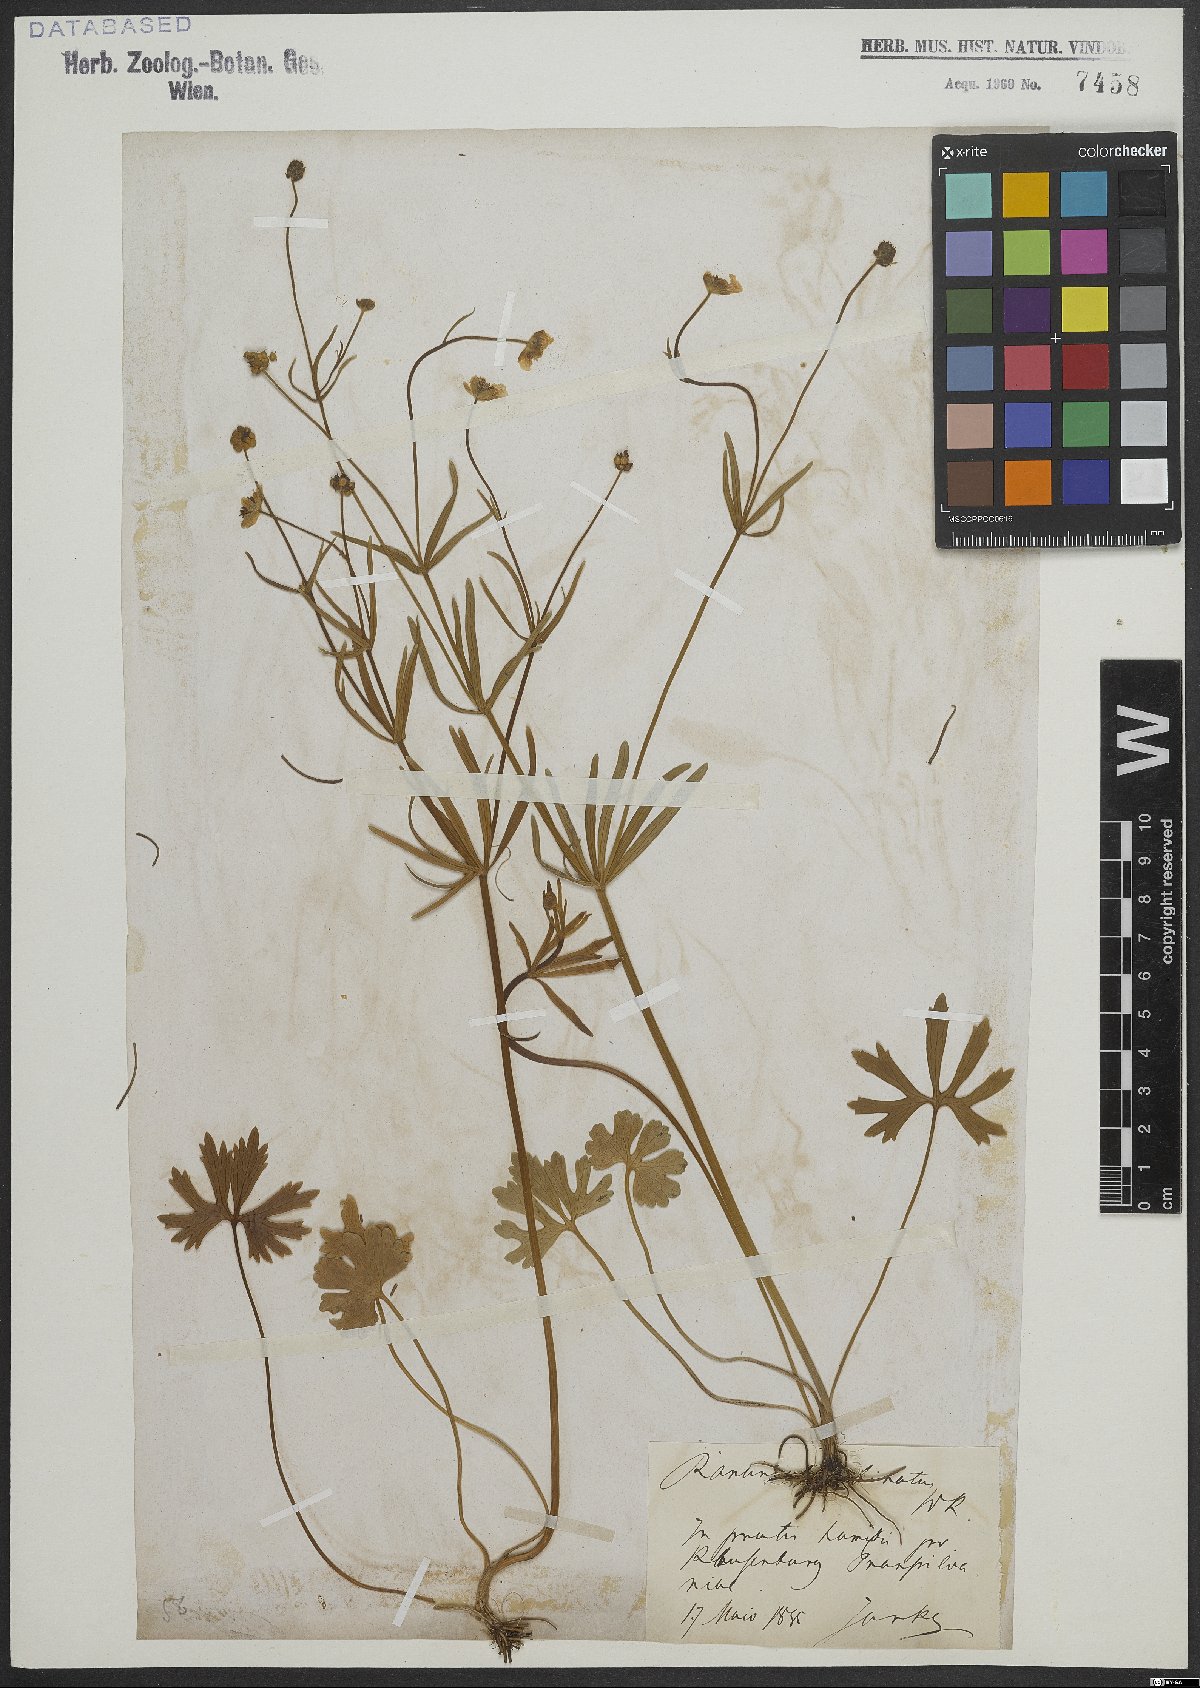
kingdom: Plantae
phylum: Tracheophyta
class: Magnoliopsida
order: Ranunculales
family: Ranunculaceae
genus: Ranunculus
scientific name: Ranunculus binatus
